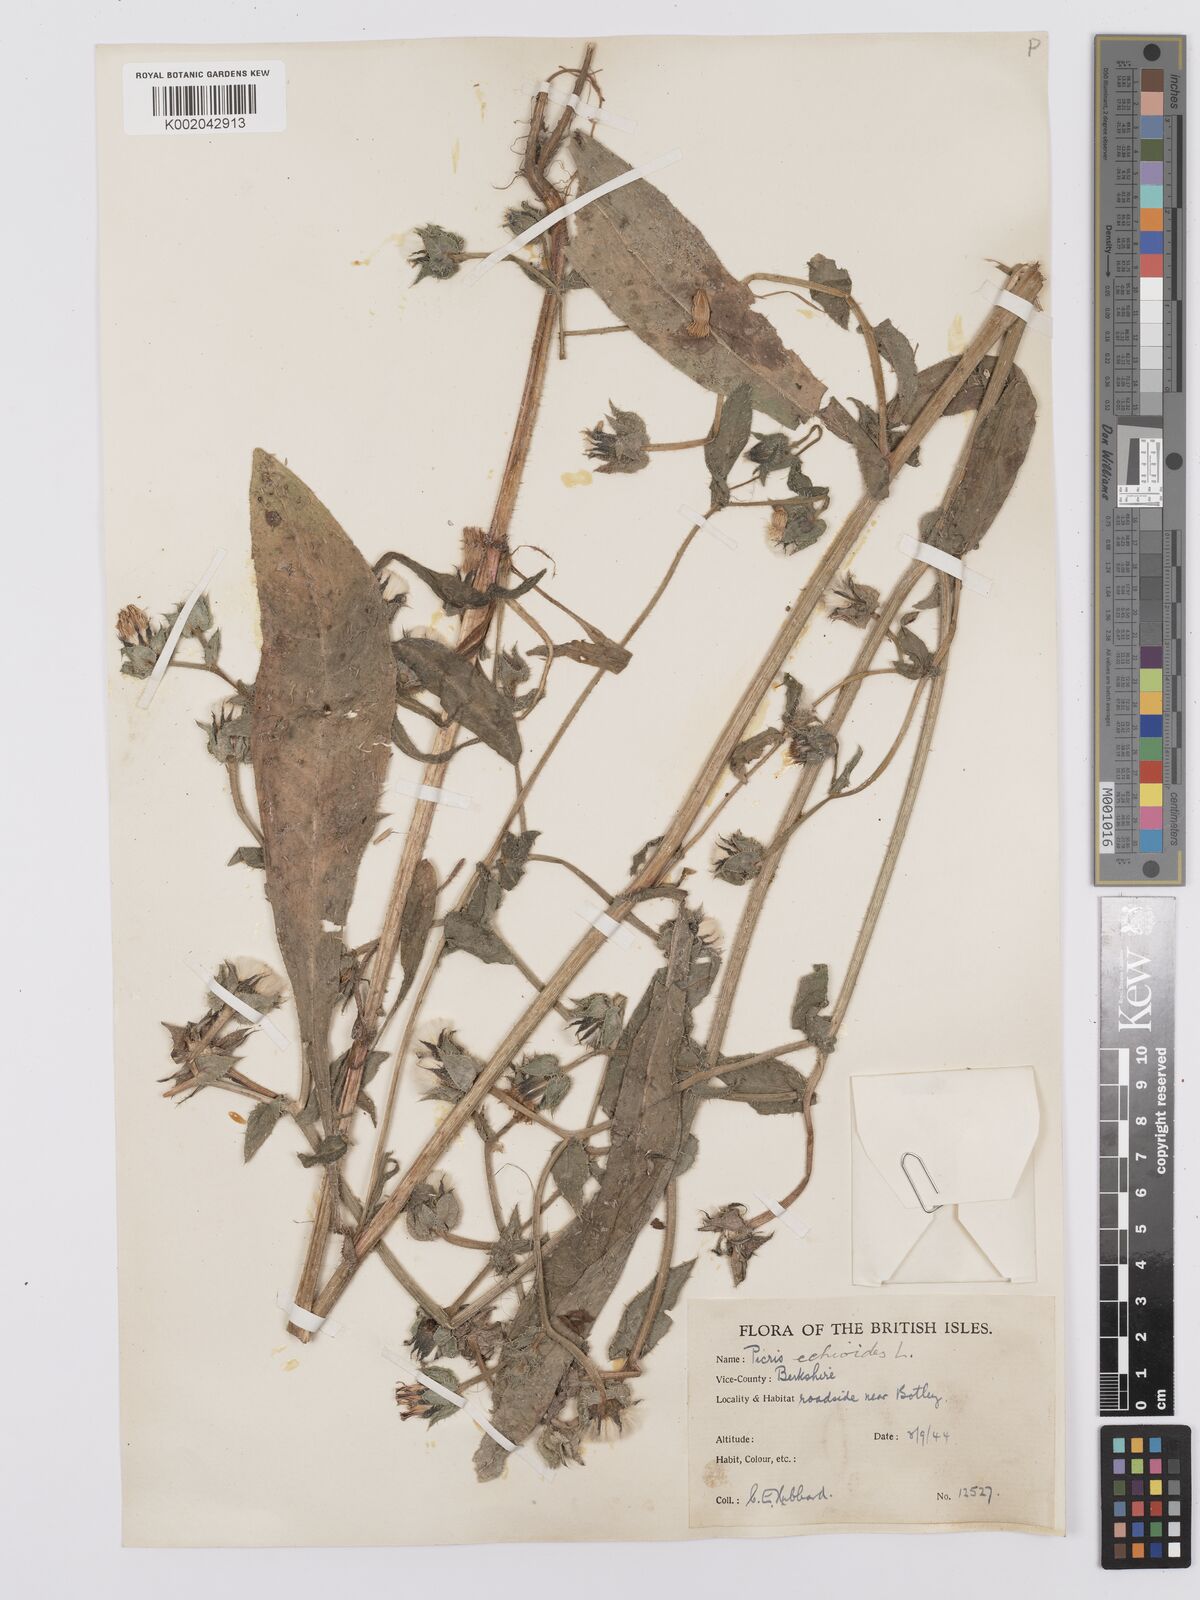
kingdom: Plantae
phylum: Tracheophyta
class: Magnoliopsida
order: Asterales
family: Asteraceae
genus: Helminthotheca
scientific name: Helminthotheca echioides
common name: Ox-tongue
